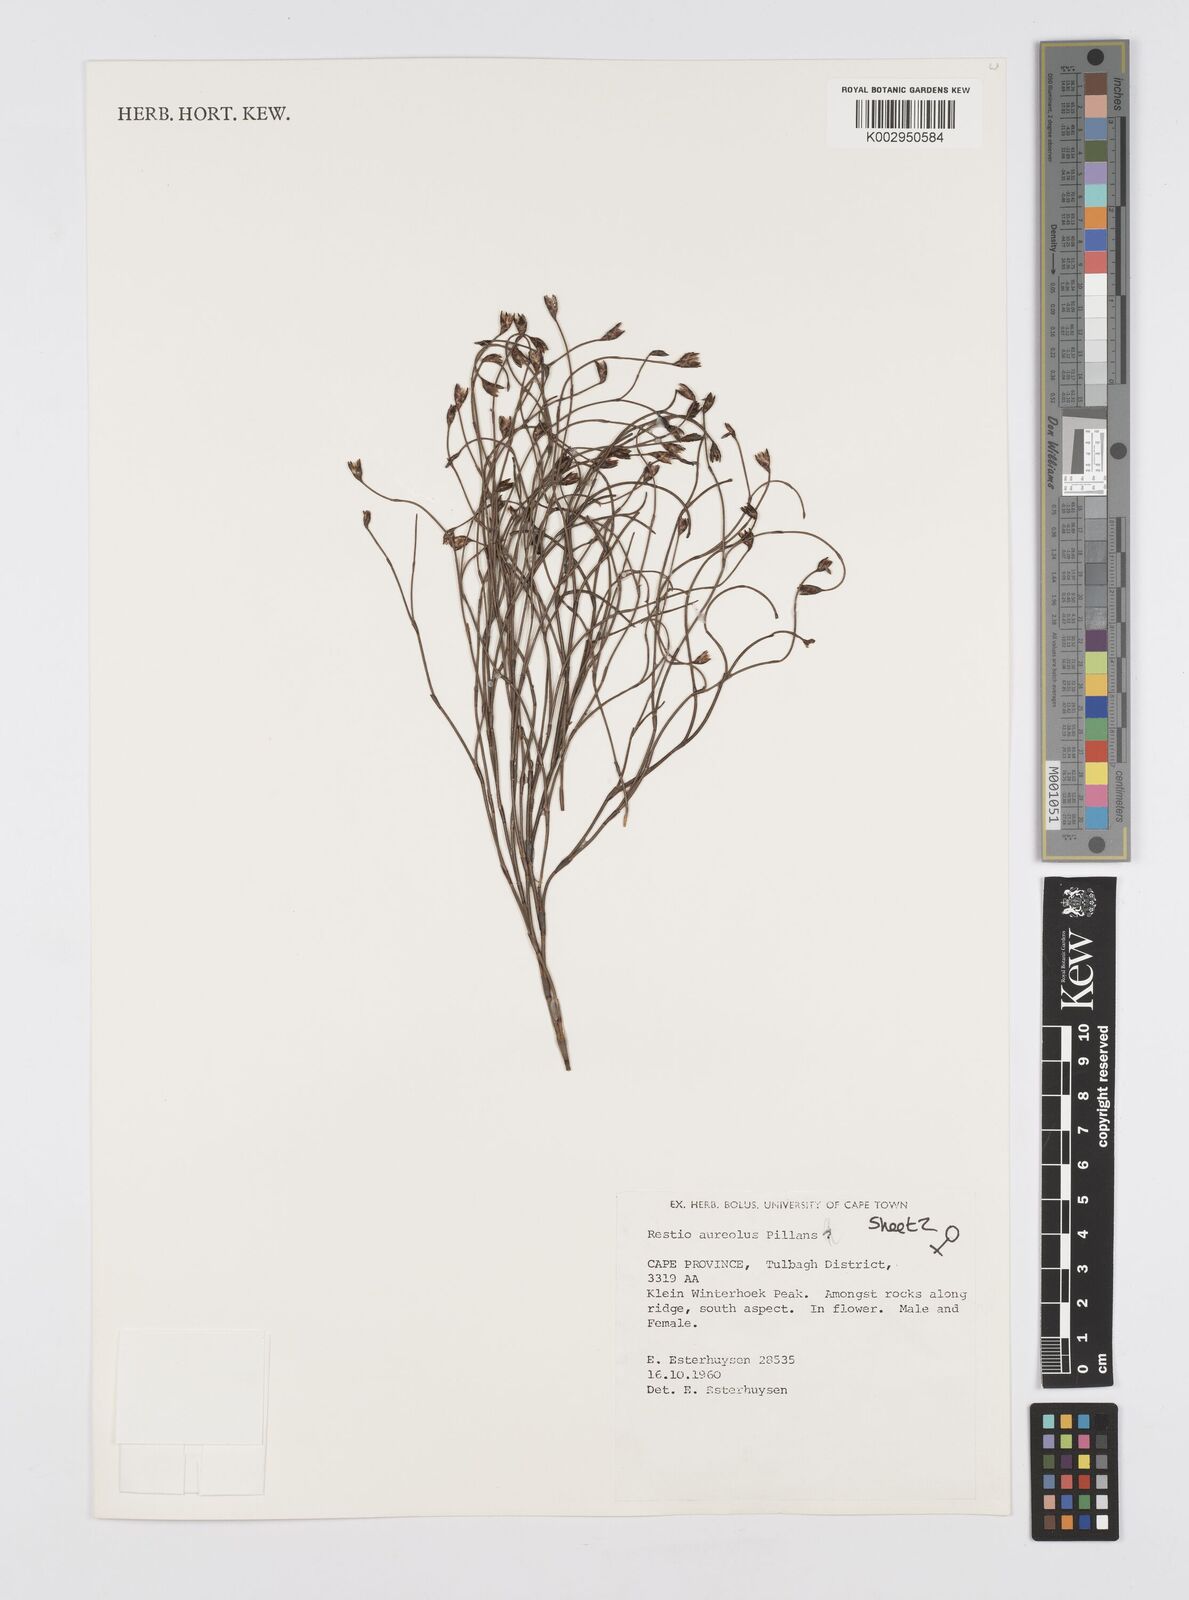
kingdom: Plantae
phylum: Tracheophyta
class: Liliopsida
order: Poales
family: Restionaceae
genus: Restio
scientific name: Restio aureolus
